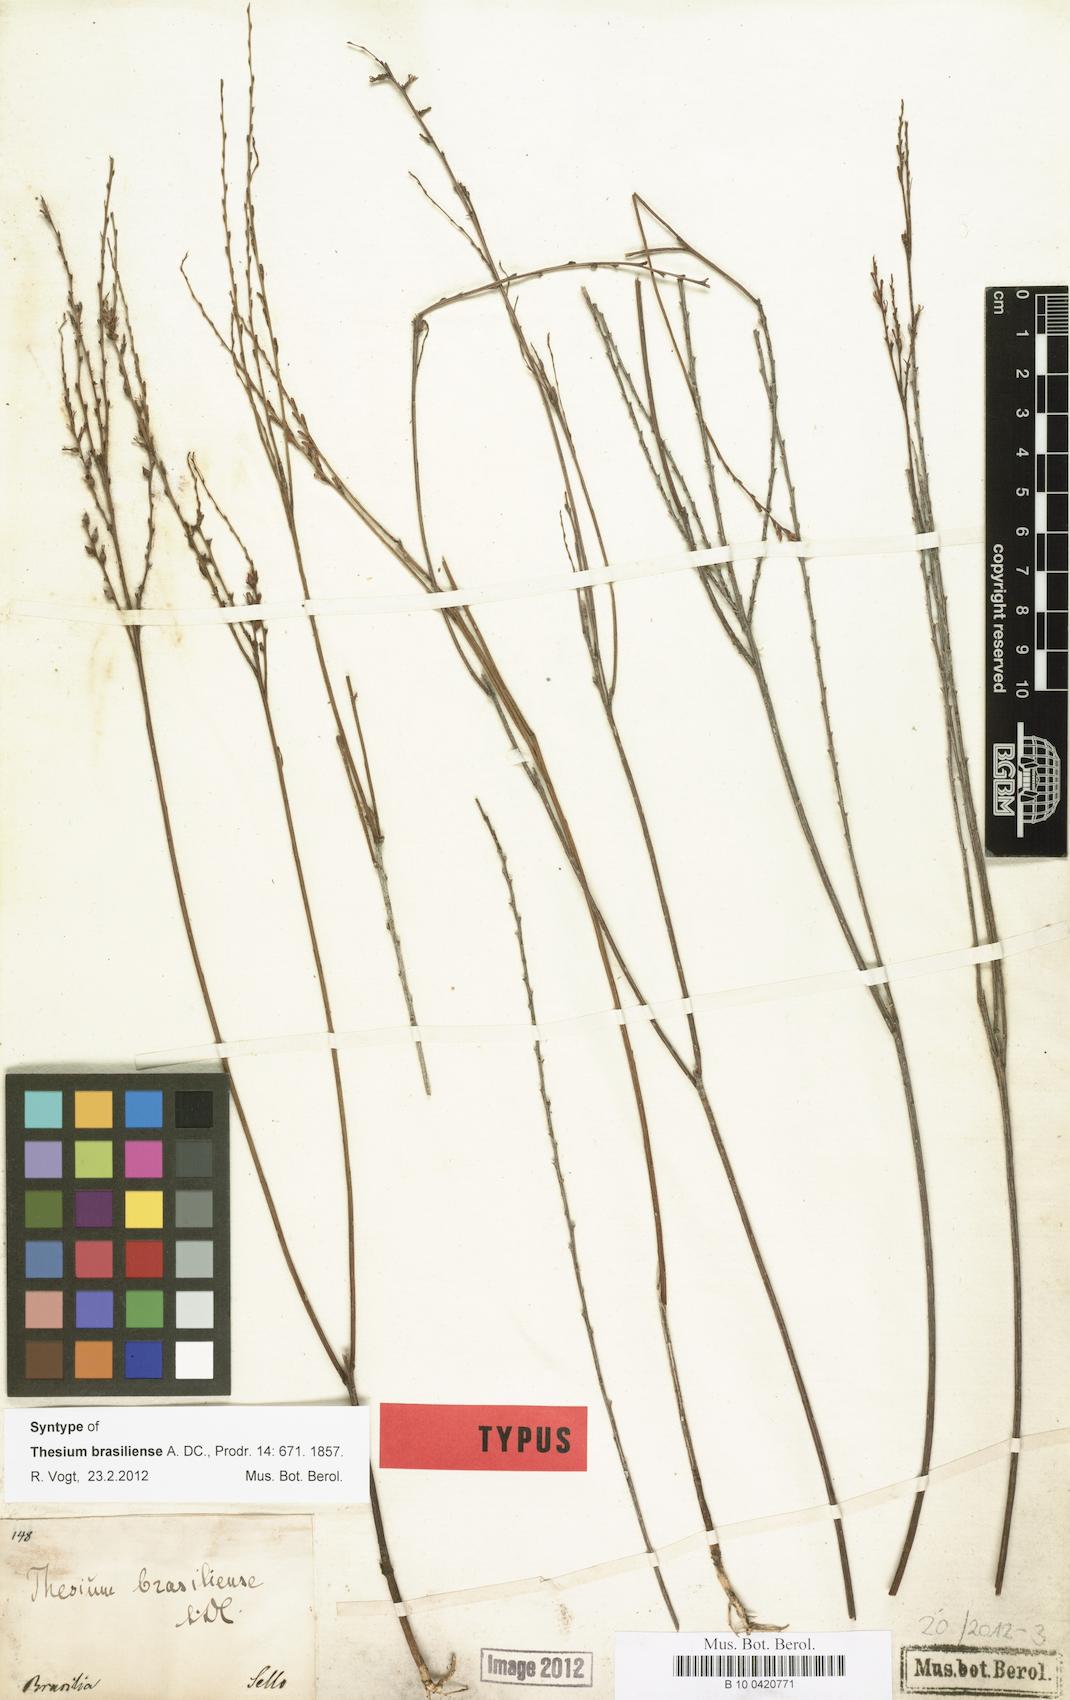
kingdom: Plantae
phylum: Tracheophyta
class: Magnoliopsida
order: Santalales
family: Thesiaceae
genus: Austroamericium
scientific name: Austroamericium brasiliense
